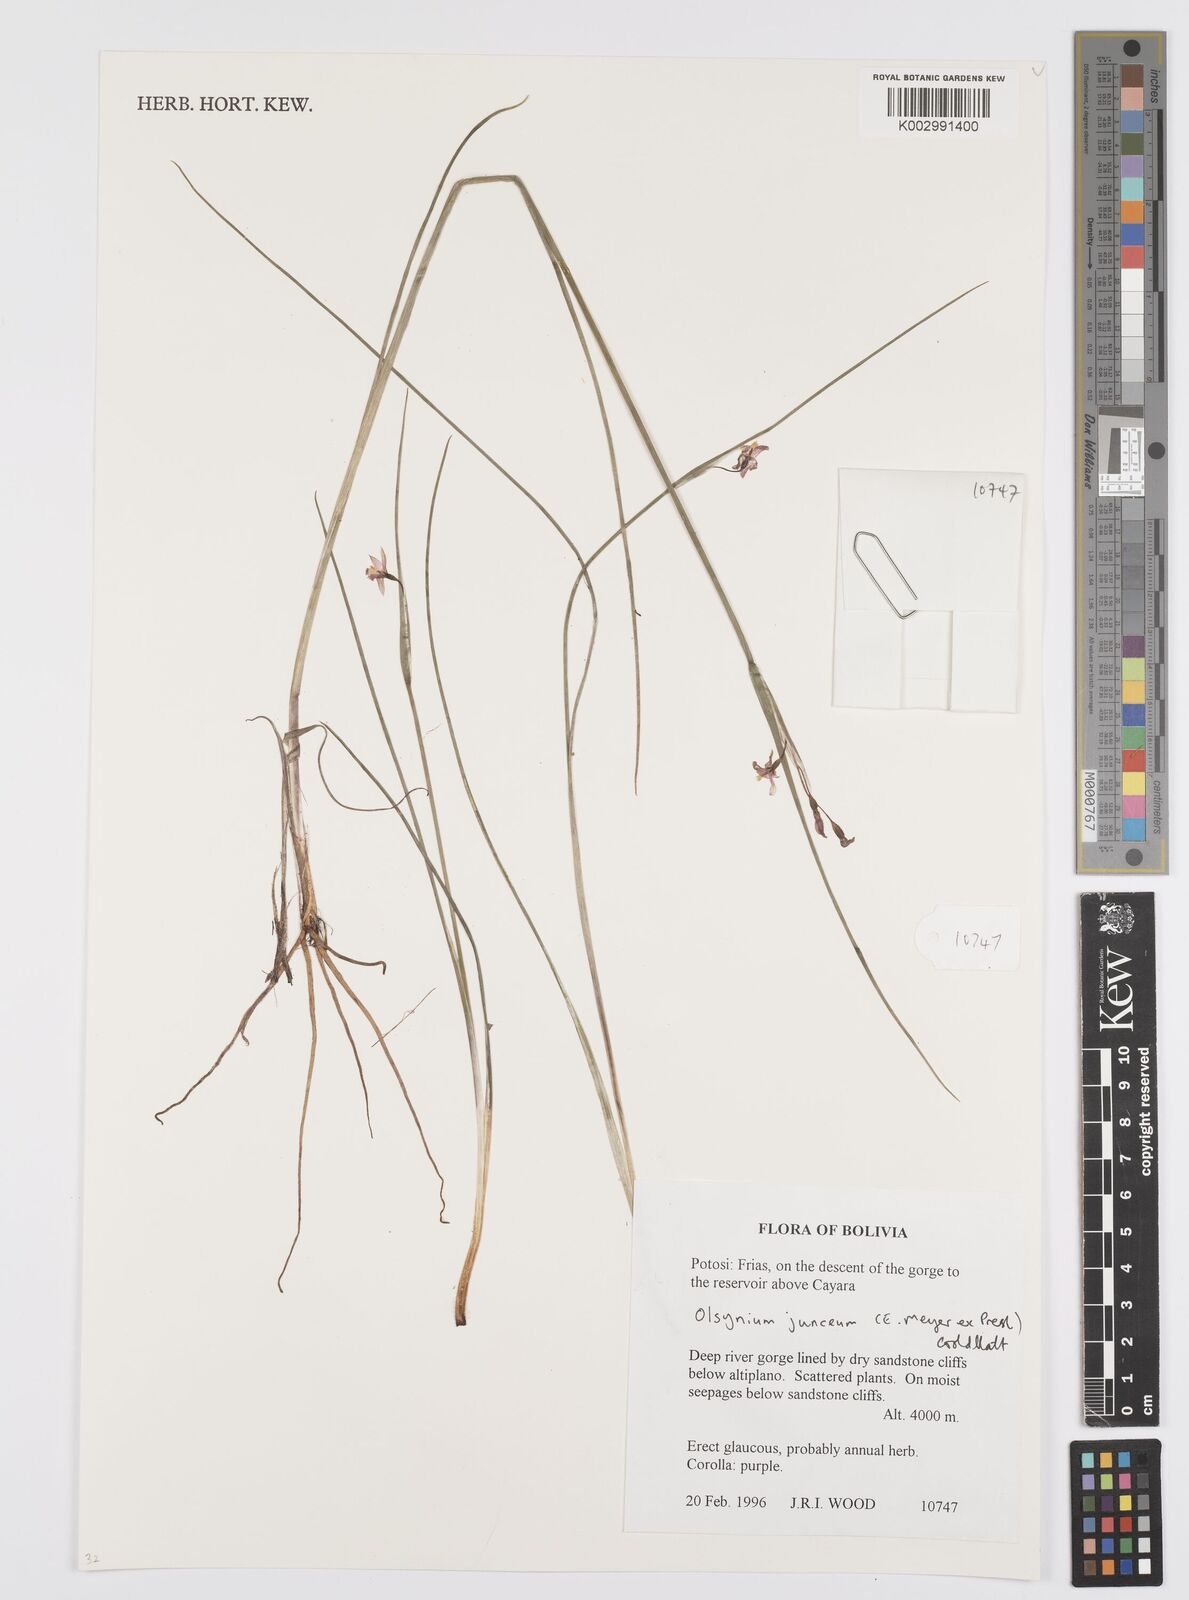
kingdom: Plantae
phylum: Tracheophyta
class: Liliopsida
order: Asparagales
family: Iridaceae
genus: Olsynium
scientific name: Olsynium junceum
